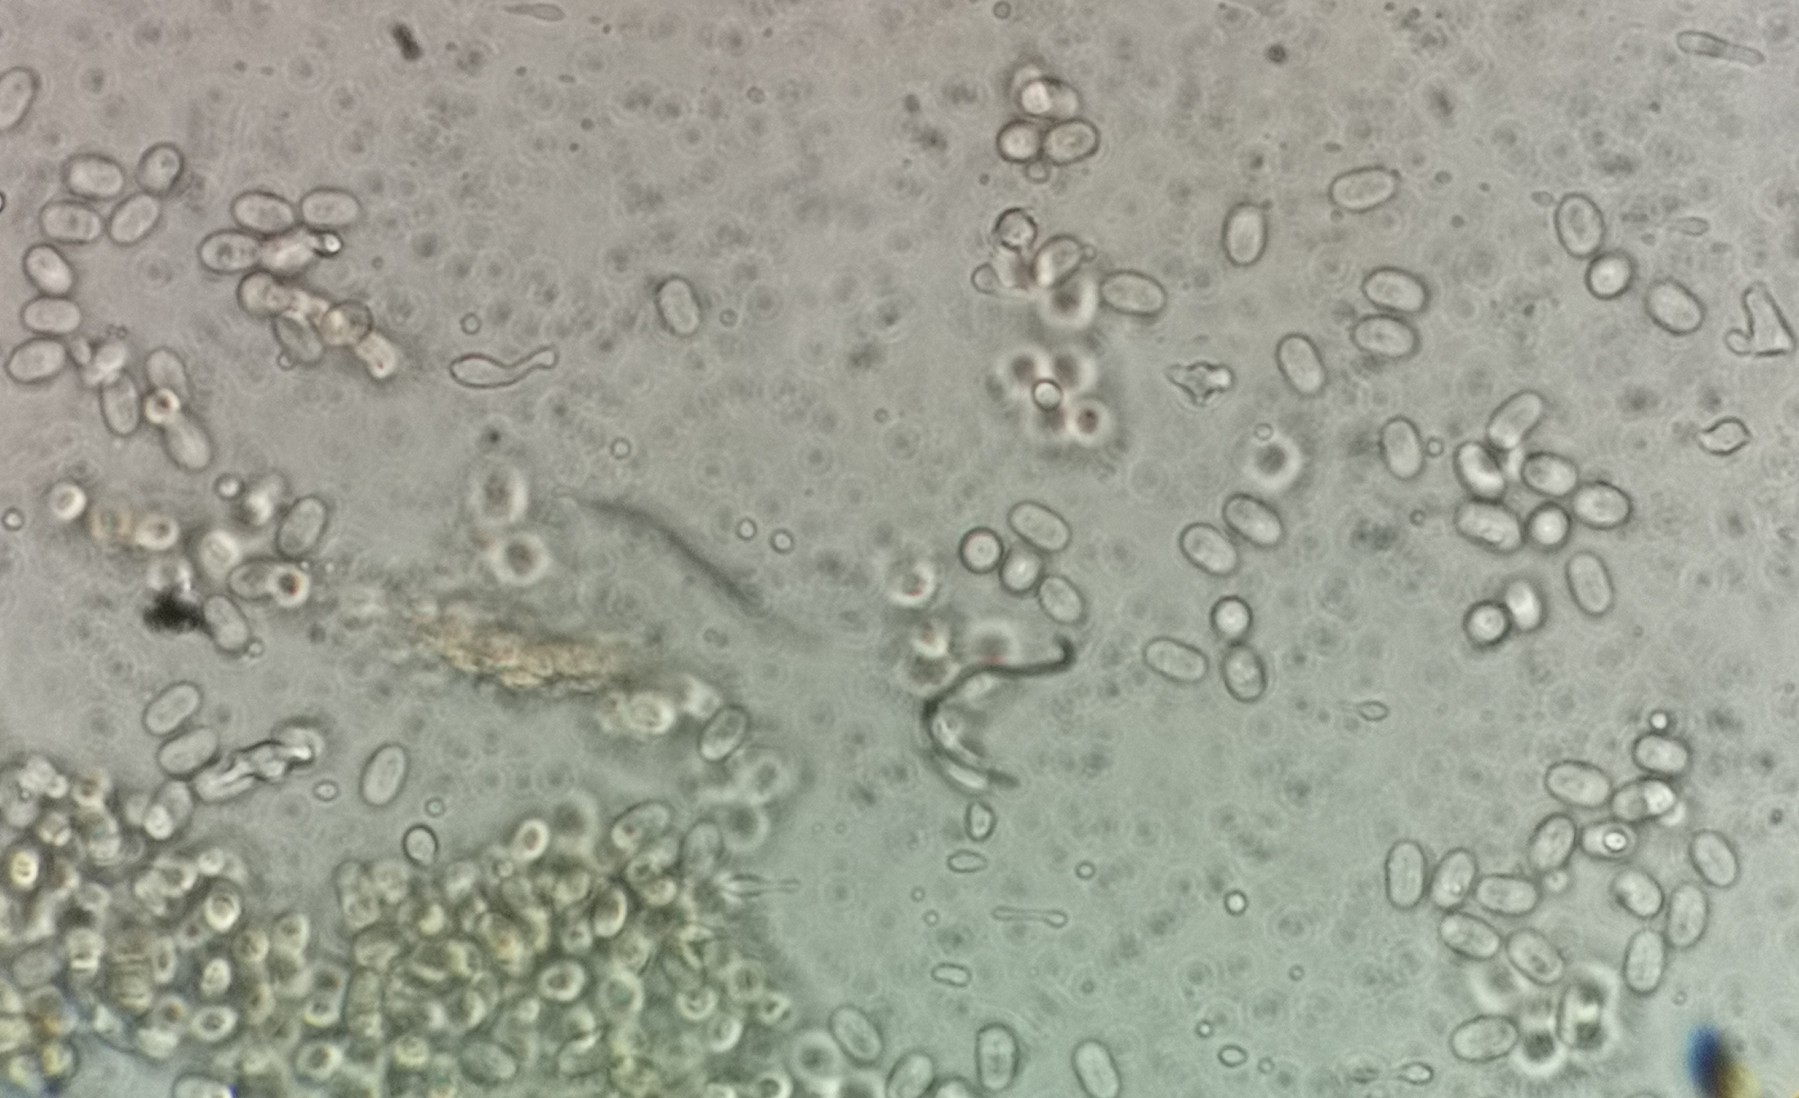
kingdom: Fungi
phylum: Mucoromycota
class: Mucoromycetes
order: Mucorales
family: Pilobolaceae
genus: Pilobolus
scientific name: Pilobolus crystallinus
